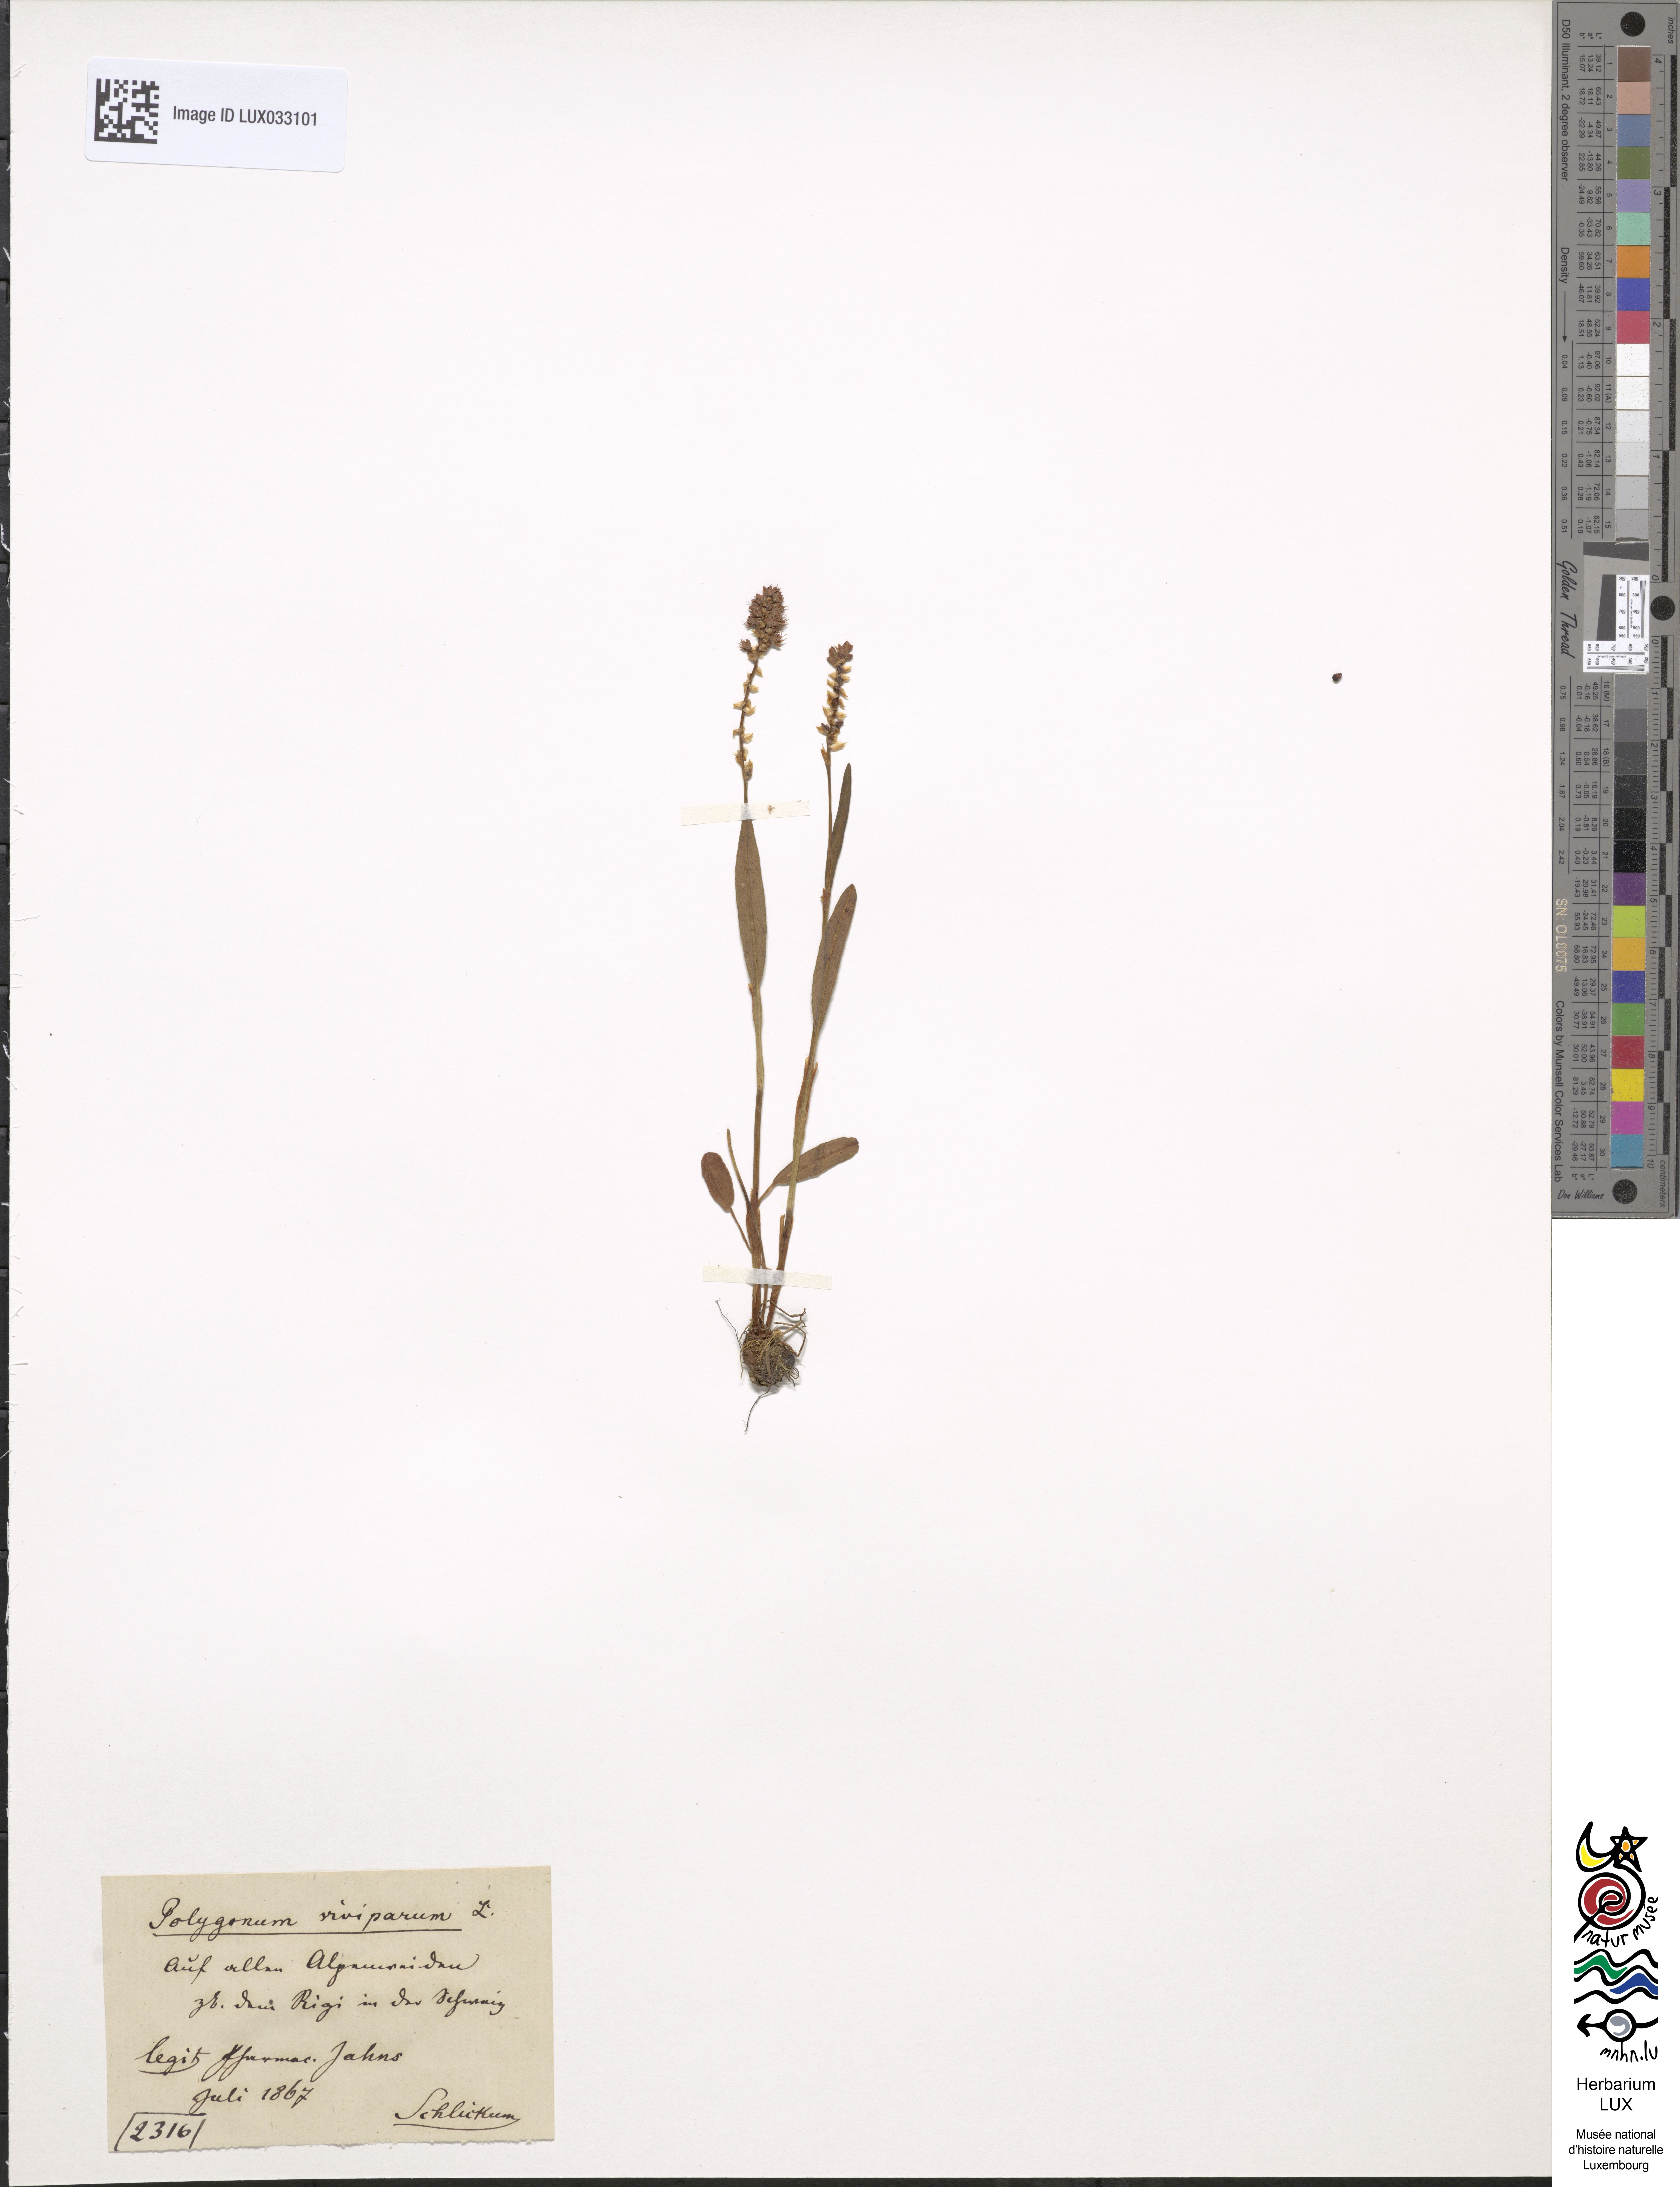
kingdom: Plantae
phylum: Tracheophyta
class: Magnoliopsida
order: Caryophyllales
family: Polygonaceae
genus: Bistorta
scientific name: Bistorta vivipara
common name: Alpine bistort
